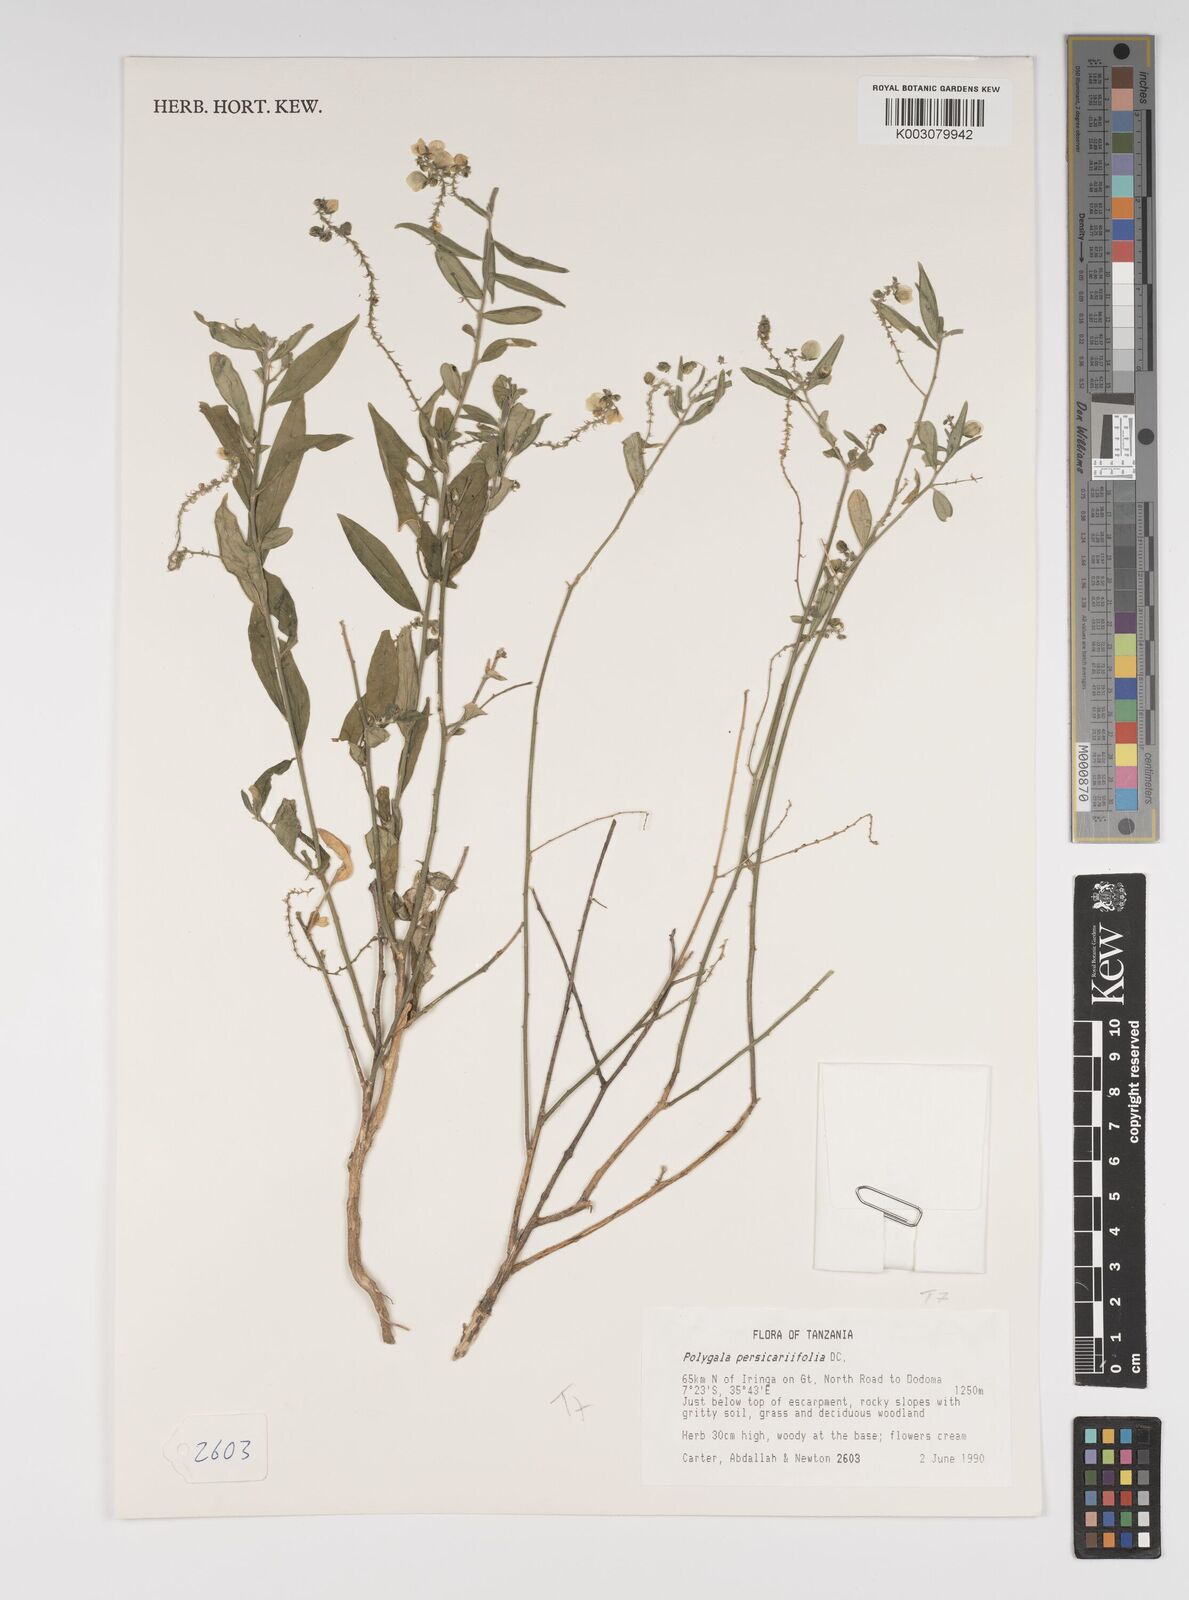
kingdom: Plantae
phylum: Tracheophyta
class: Magnoliopsida
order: Fabales
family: Polygalaceae
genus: Polygala
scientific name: Polygala persicariifolia
